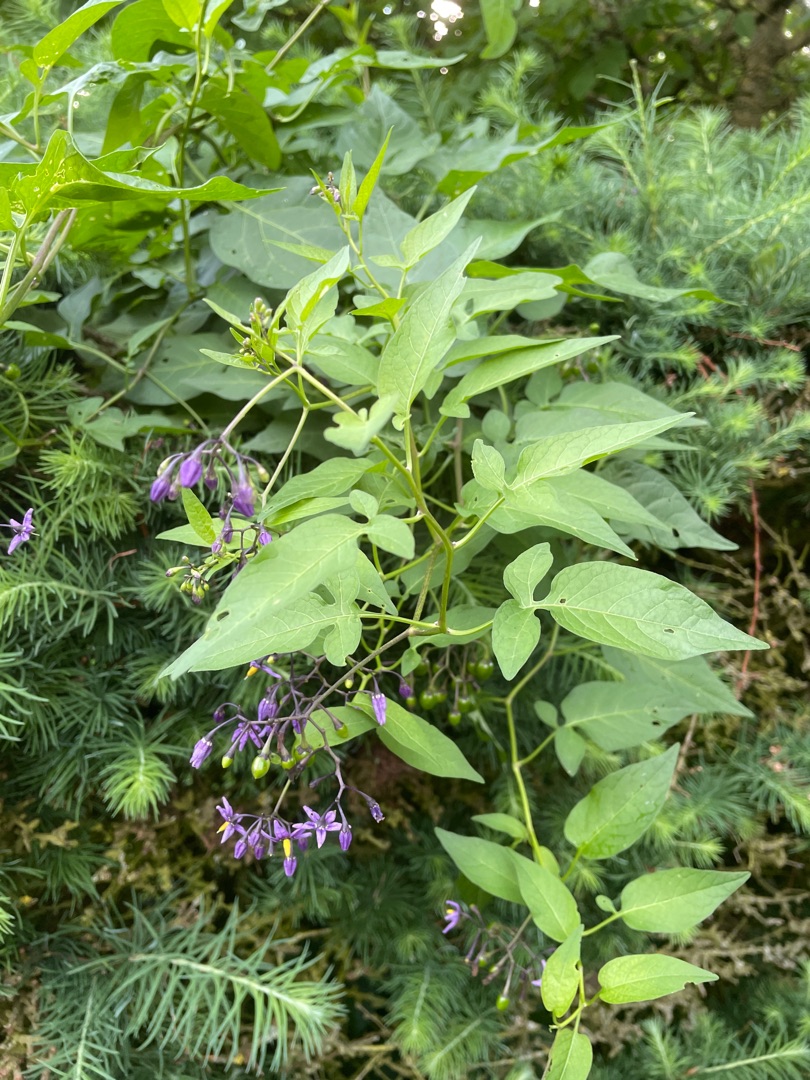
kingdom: Plantae
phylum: Tracheophyta
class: Magnoliopsida
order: Solanales
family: Solanaceae
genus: Solanum
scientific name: Solanum dulcamara
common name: Bittersød natskygge
